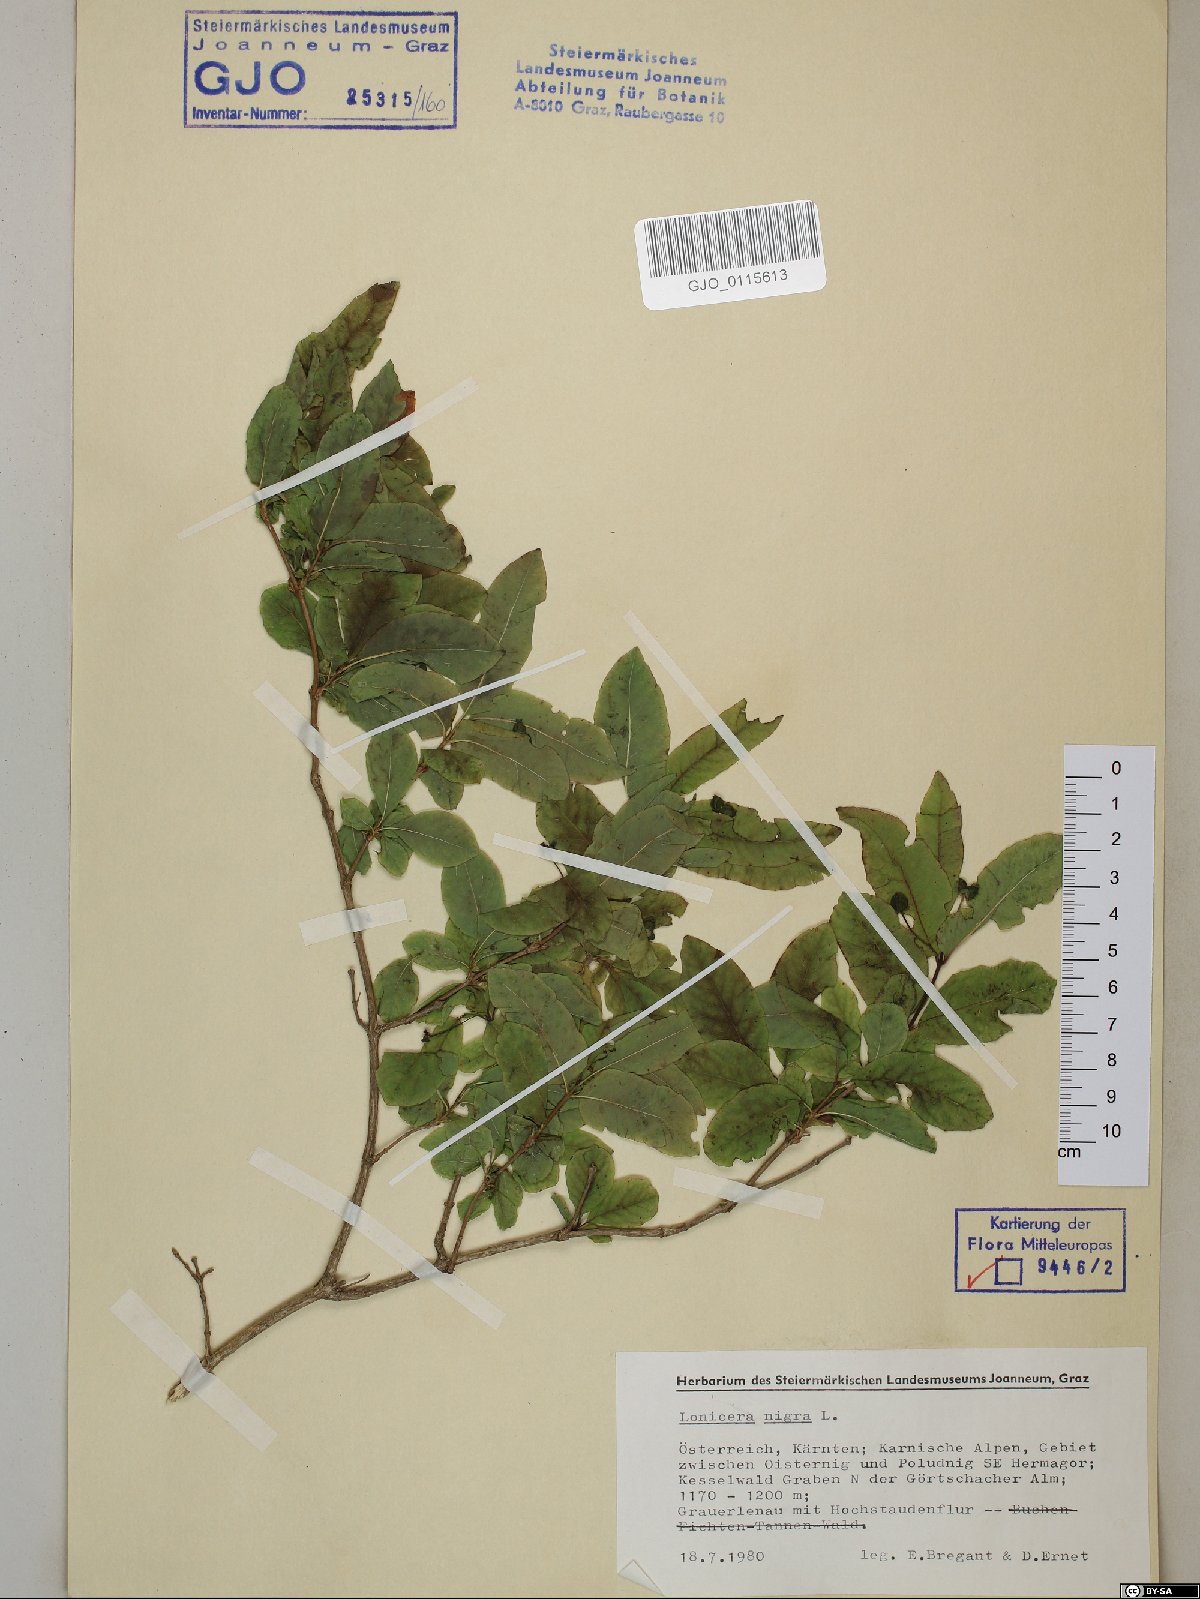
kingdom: Plantae
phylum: Tracheophyta
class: Magnoliopsida
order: Dipsacales
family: Caprifoliaceae
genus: Lonicera
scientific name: Lonicera nigra
